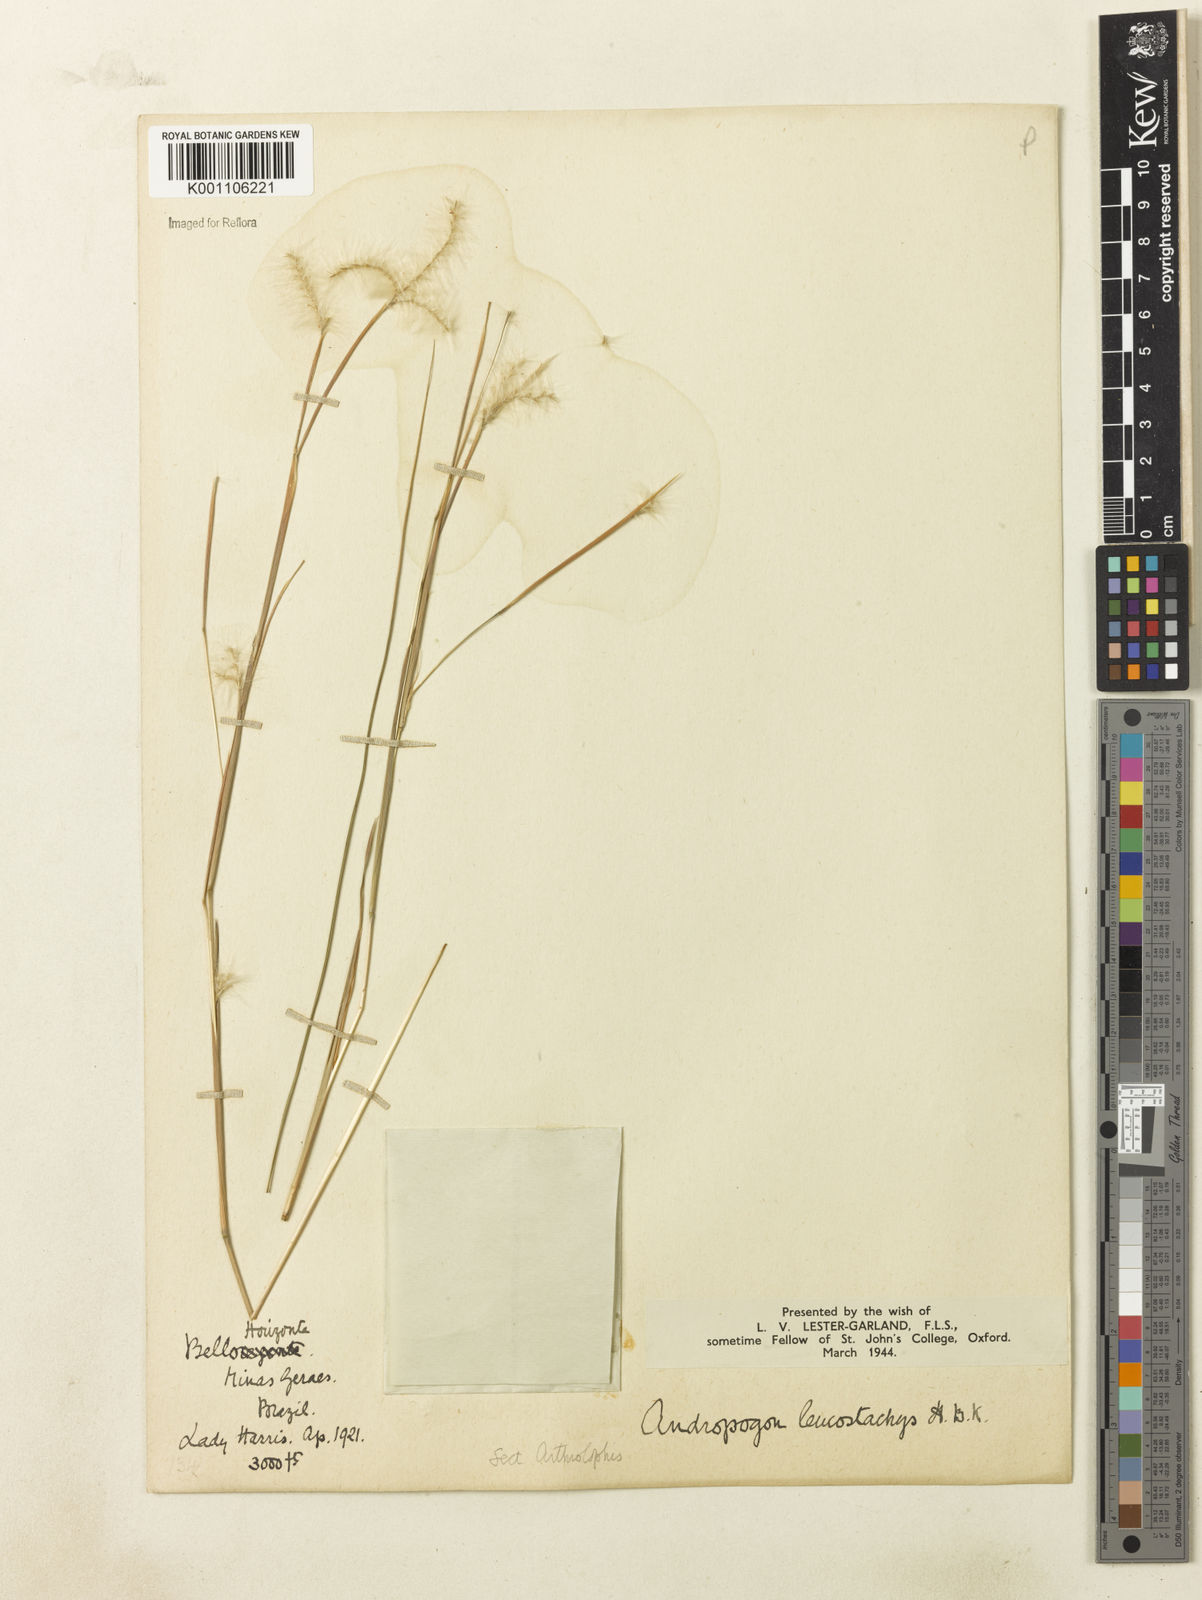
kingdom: Plantae
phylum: Tracheophyta
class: Liliopsida
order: Poales
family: Poaceae
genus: Andropogon
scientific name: Andropogon leucostachyus
